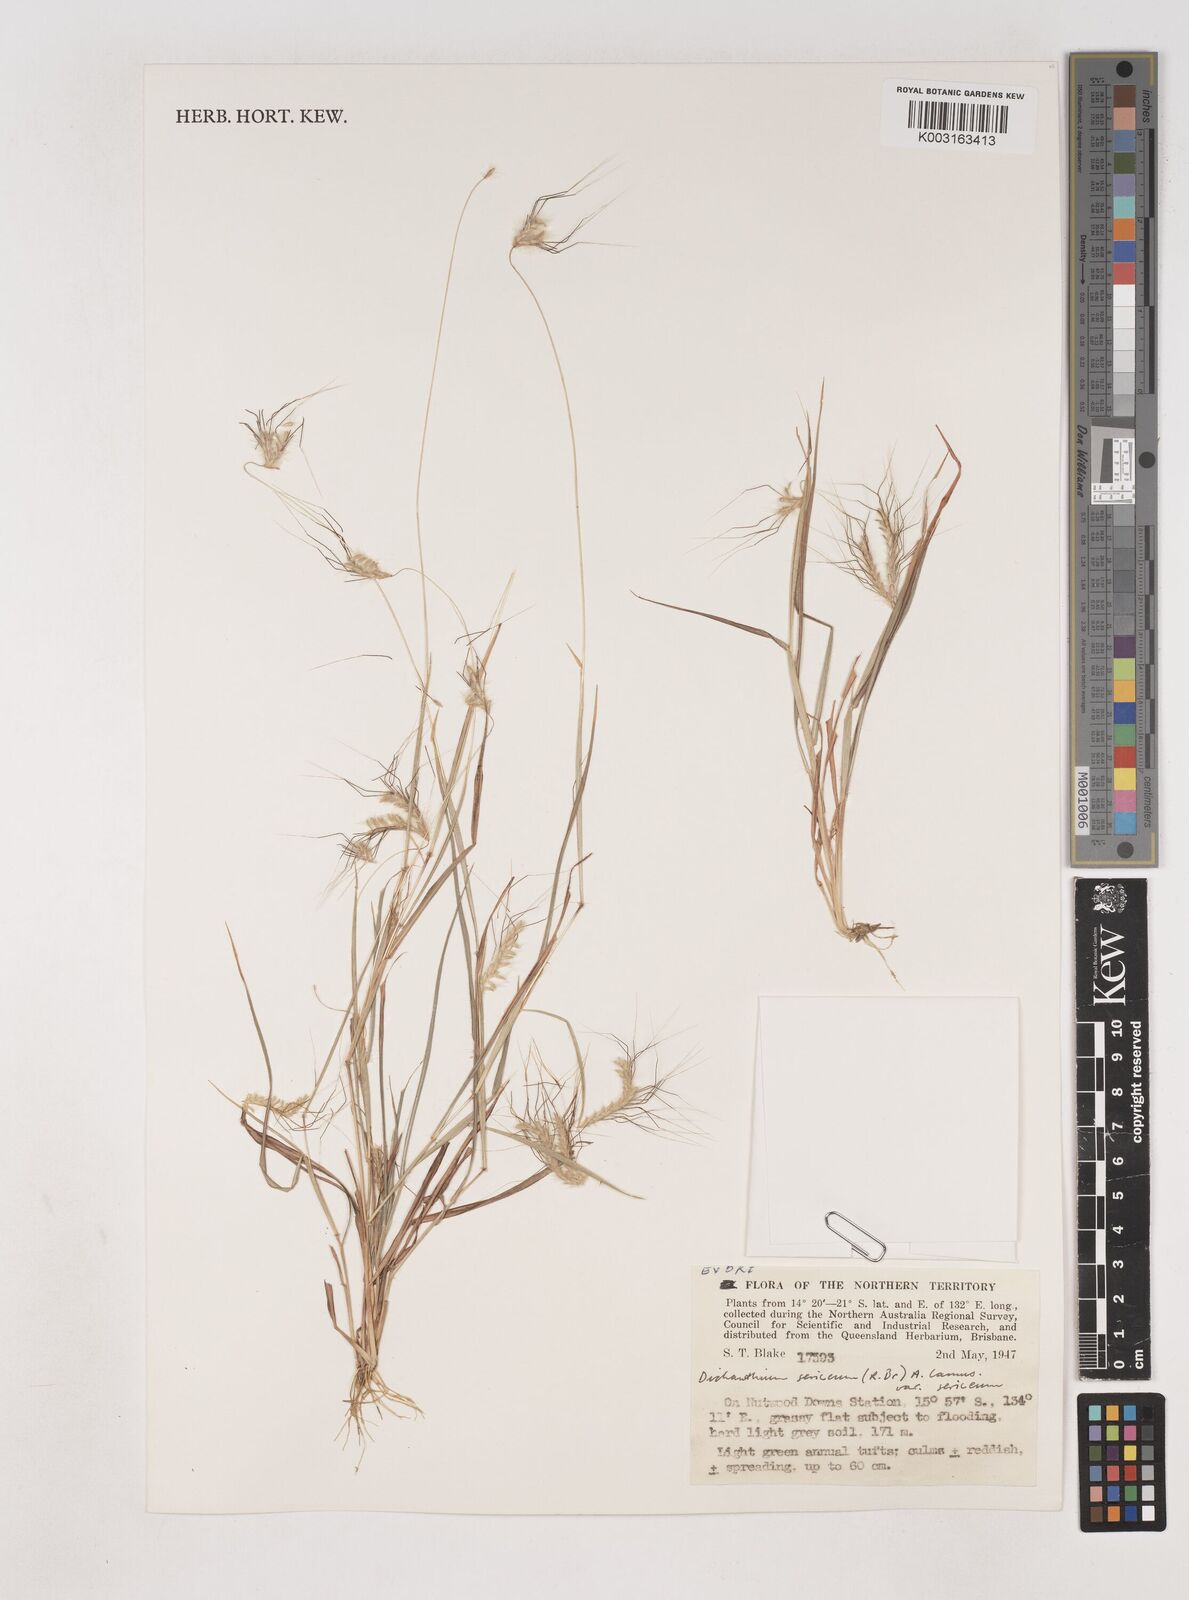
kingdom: Plantae
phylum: Tracheophyta
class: Liliopsida
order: Poales
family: Poaceae
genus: Dichanthium
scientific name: Dichanthium sericeum
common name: Silky bluestem
